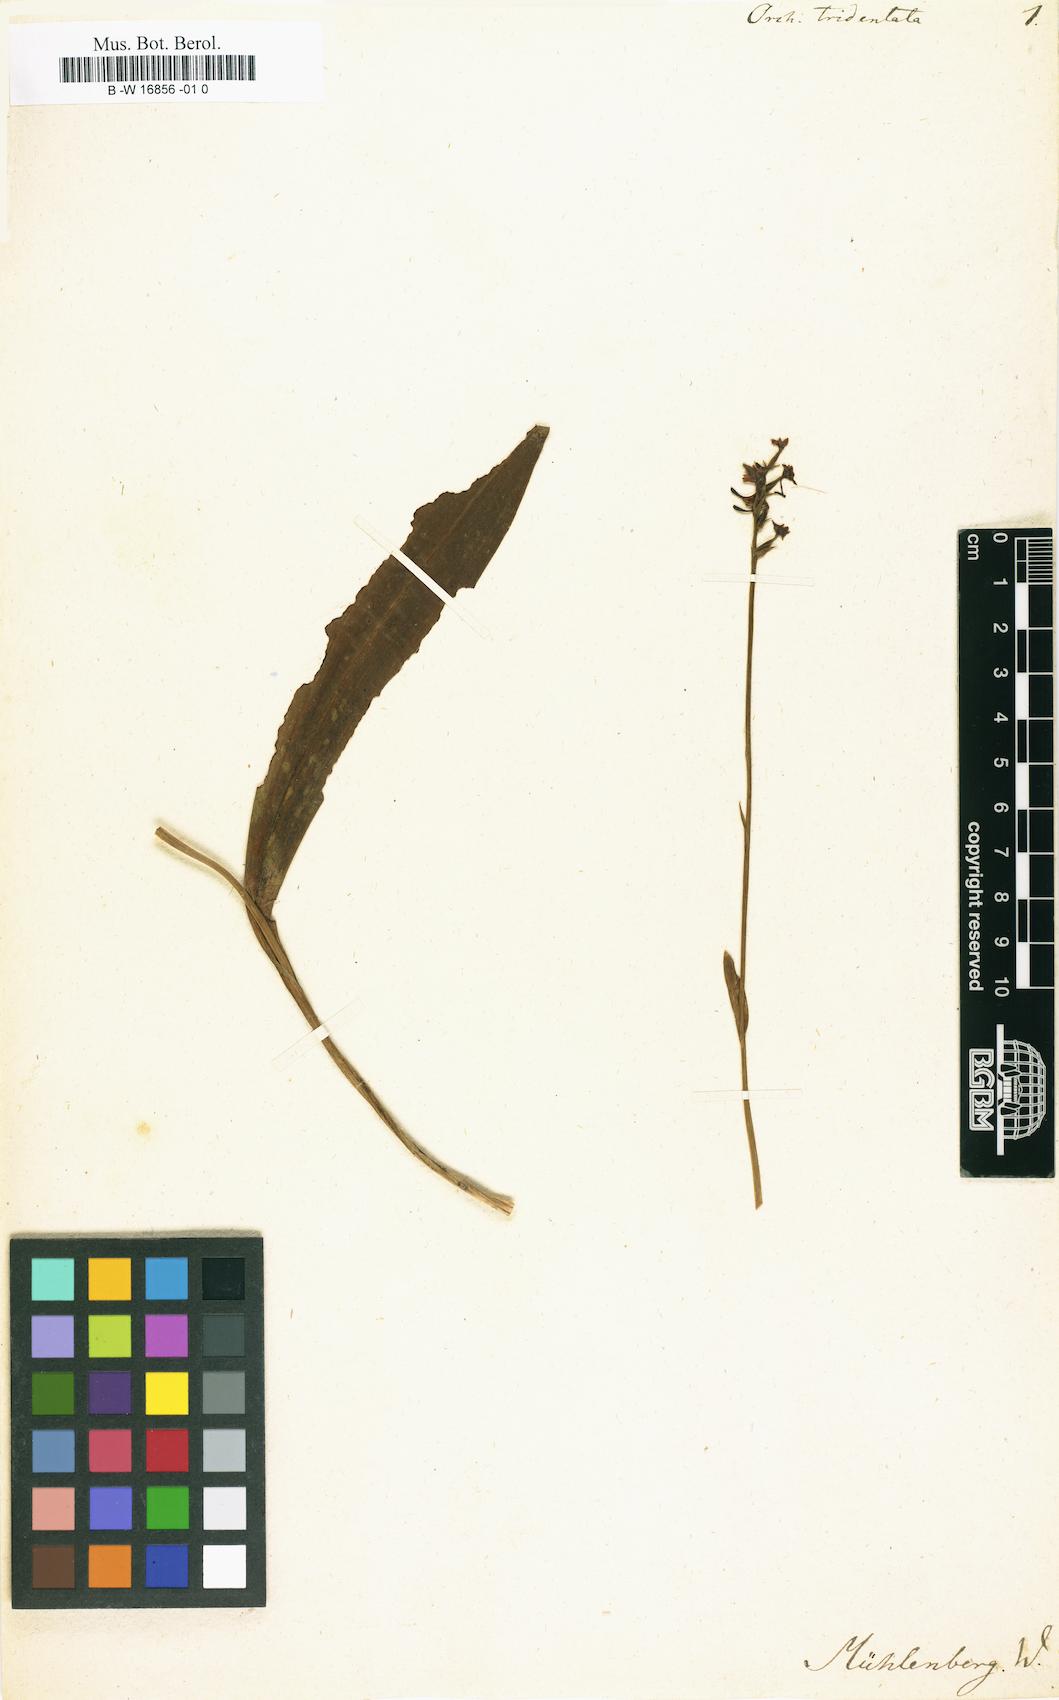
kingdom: Plantae
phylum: Tracheophyta
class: Liliopsida
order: Asparagales
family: Orchidaceae
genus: Neotinea
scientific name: Neotinea tridentata
